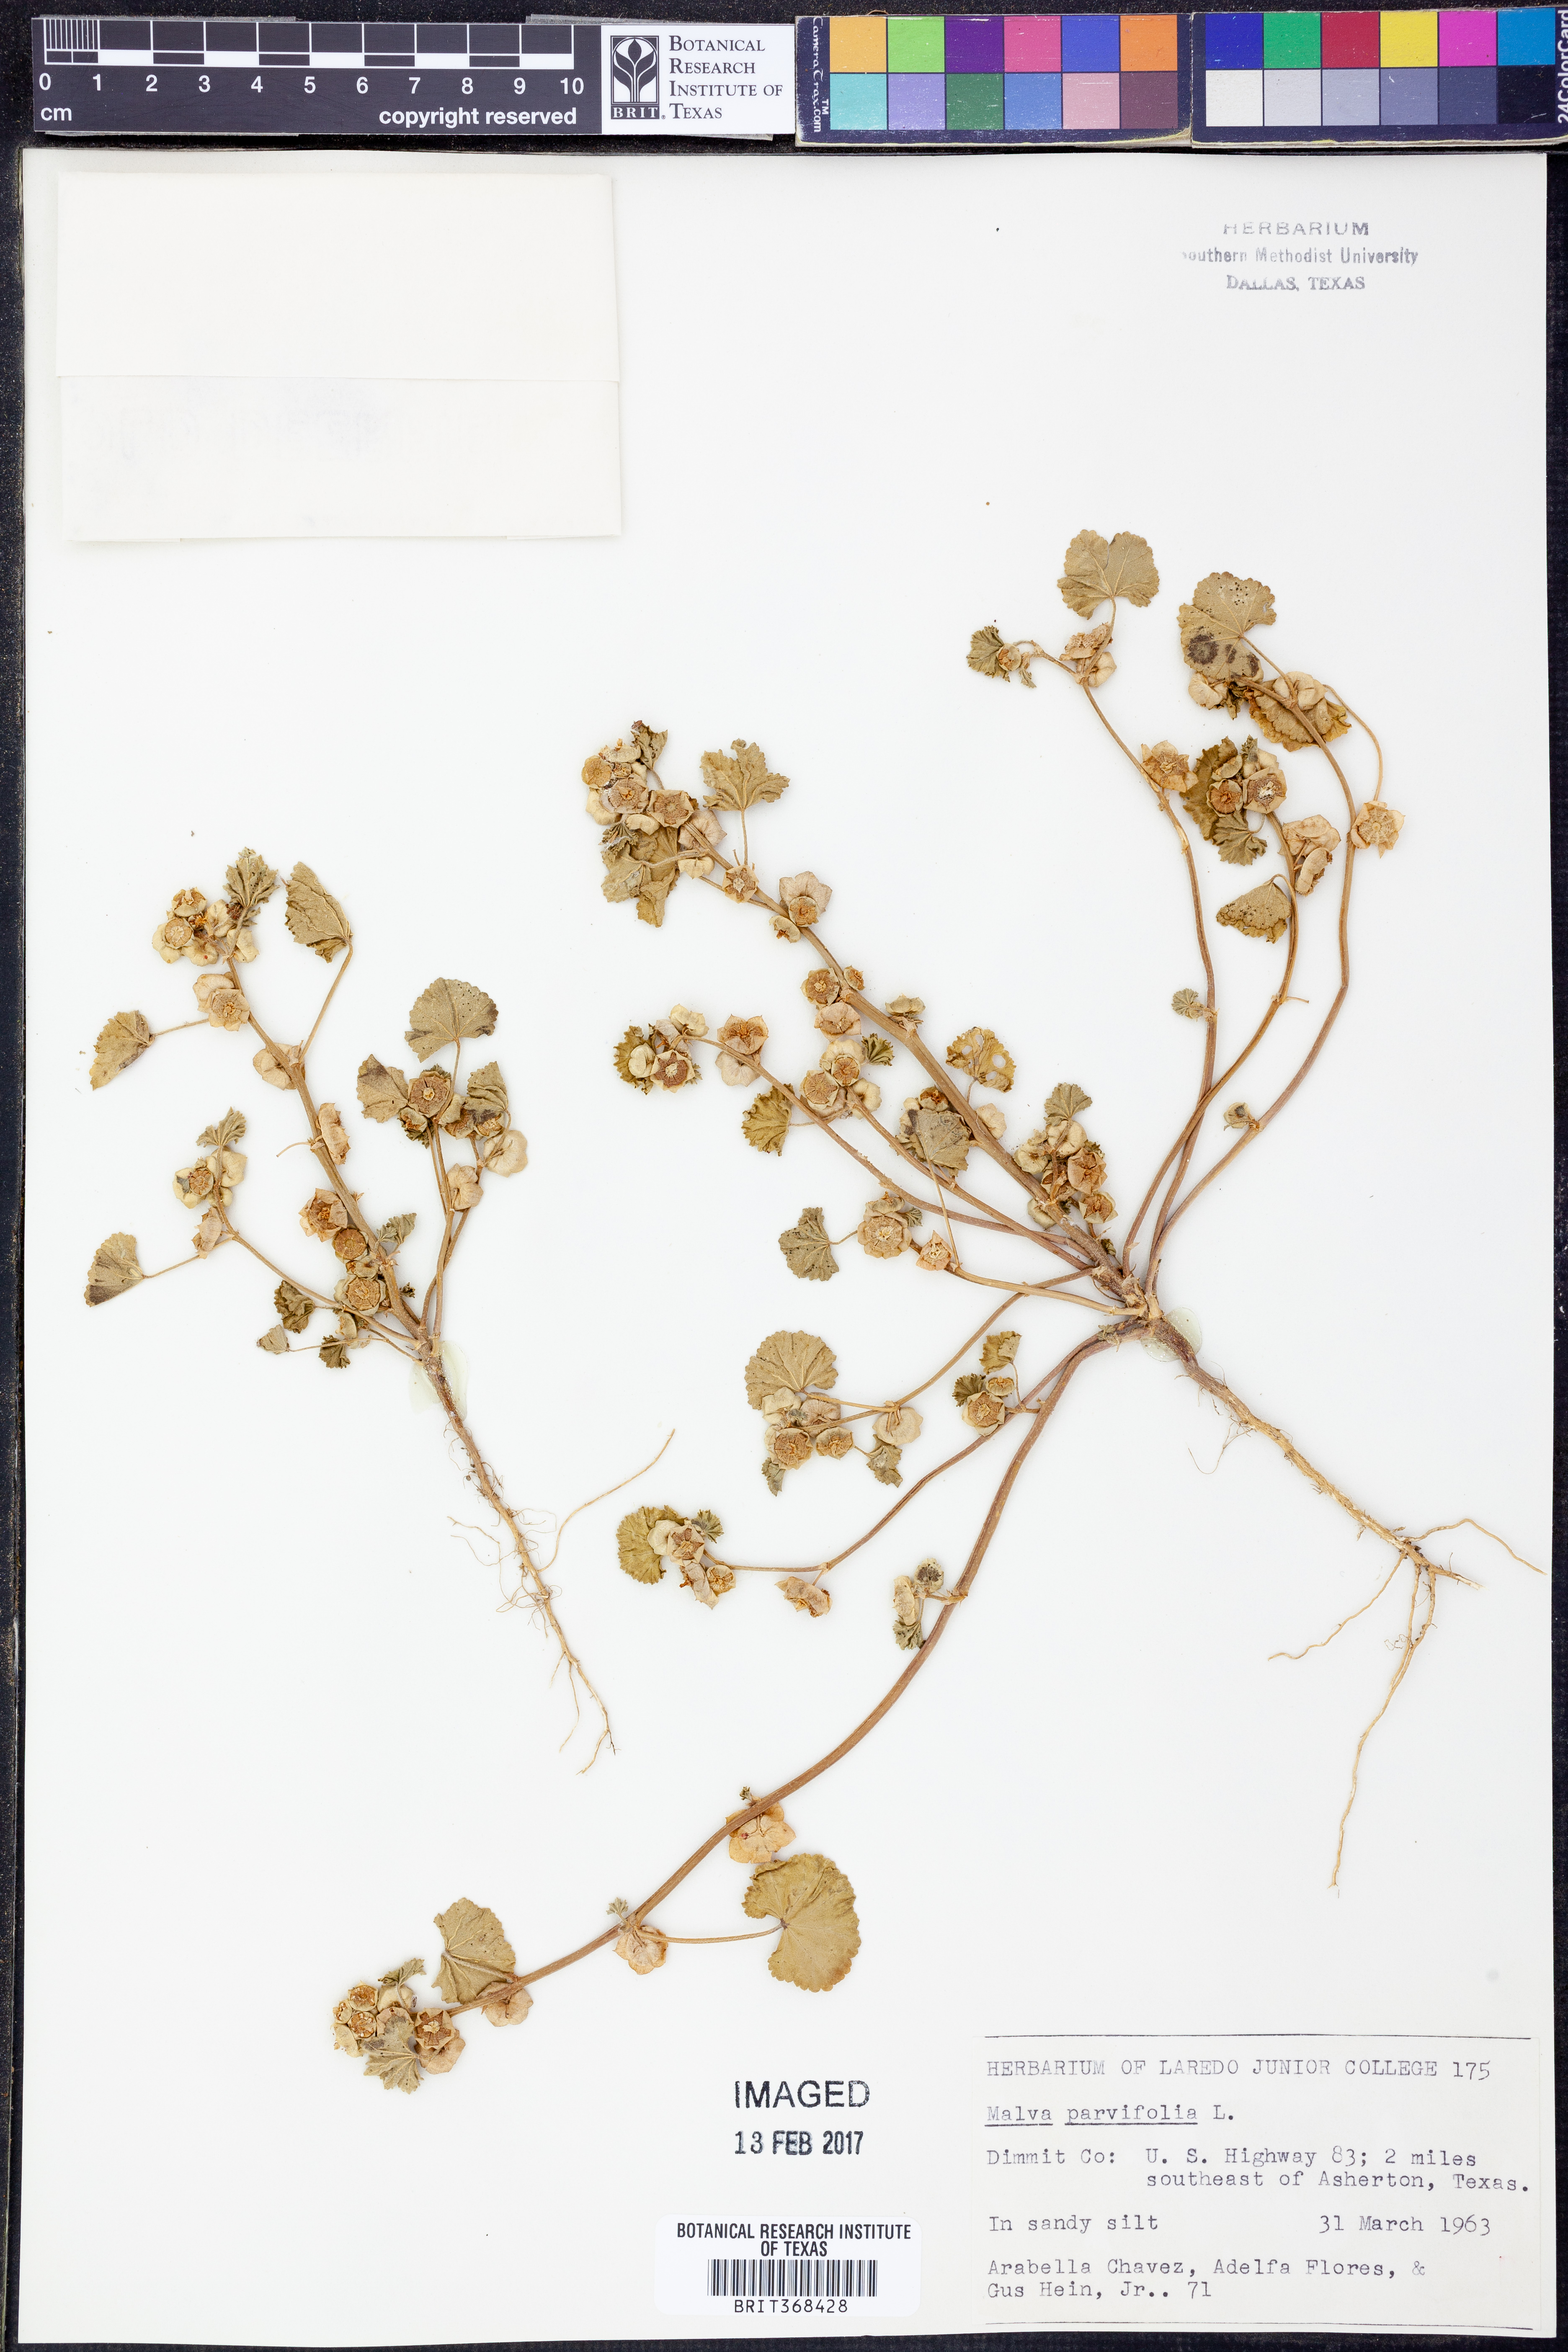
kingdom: Plantae
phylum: Tracheophyta
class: Magnoliopsida
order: Malvales
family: Malvaceae
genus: Malva
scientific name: Malva parviflora
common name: Least mallow
